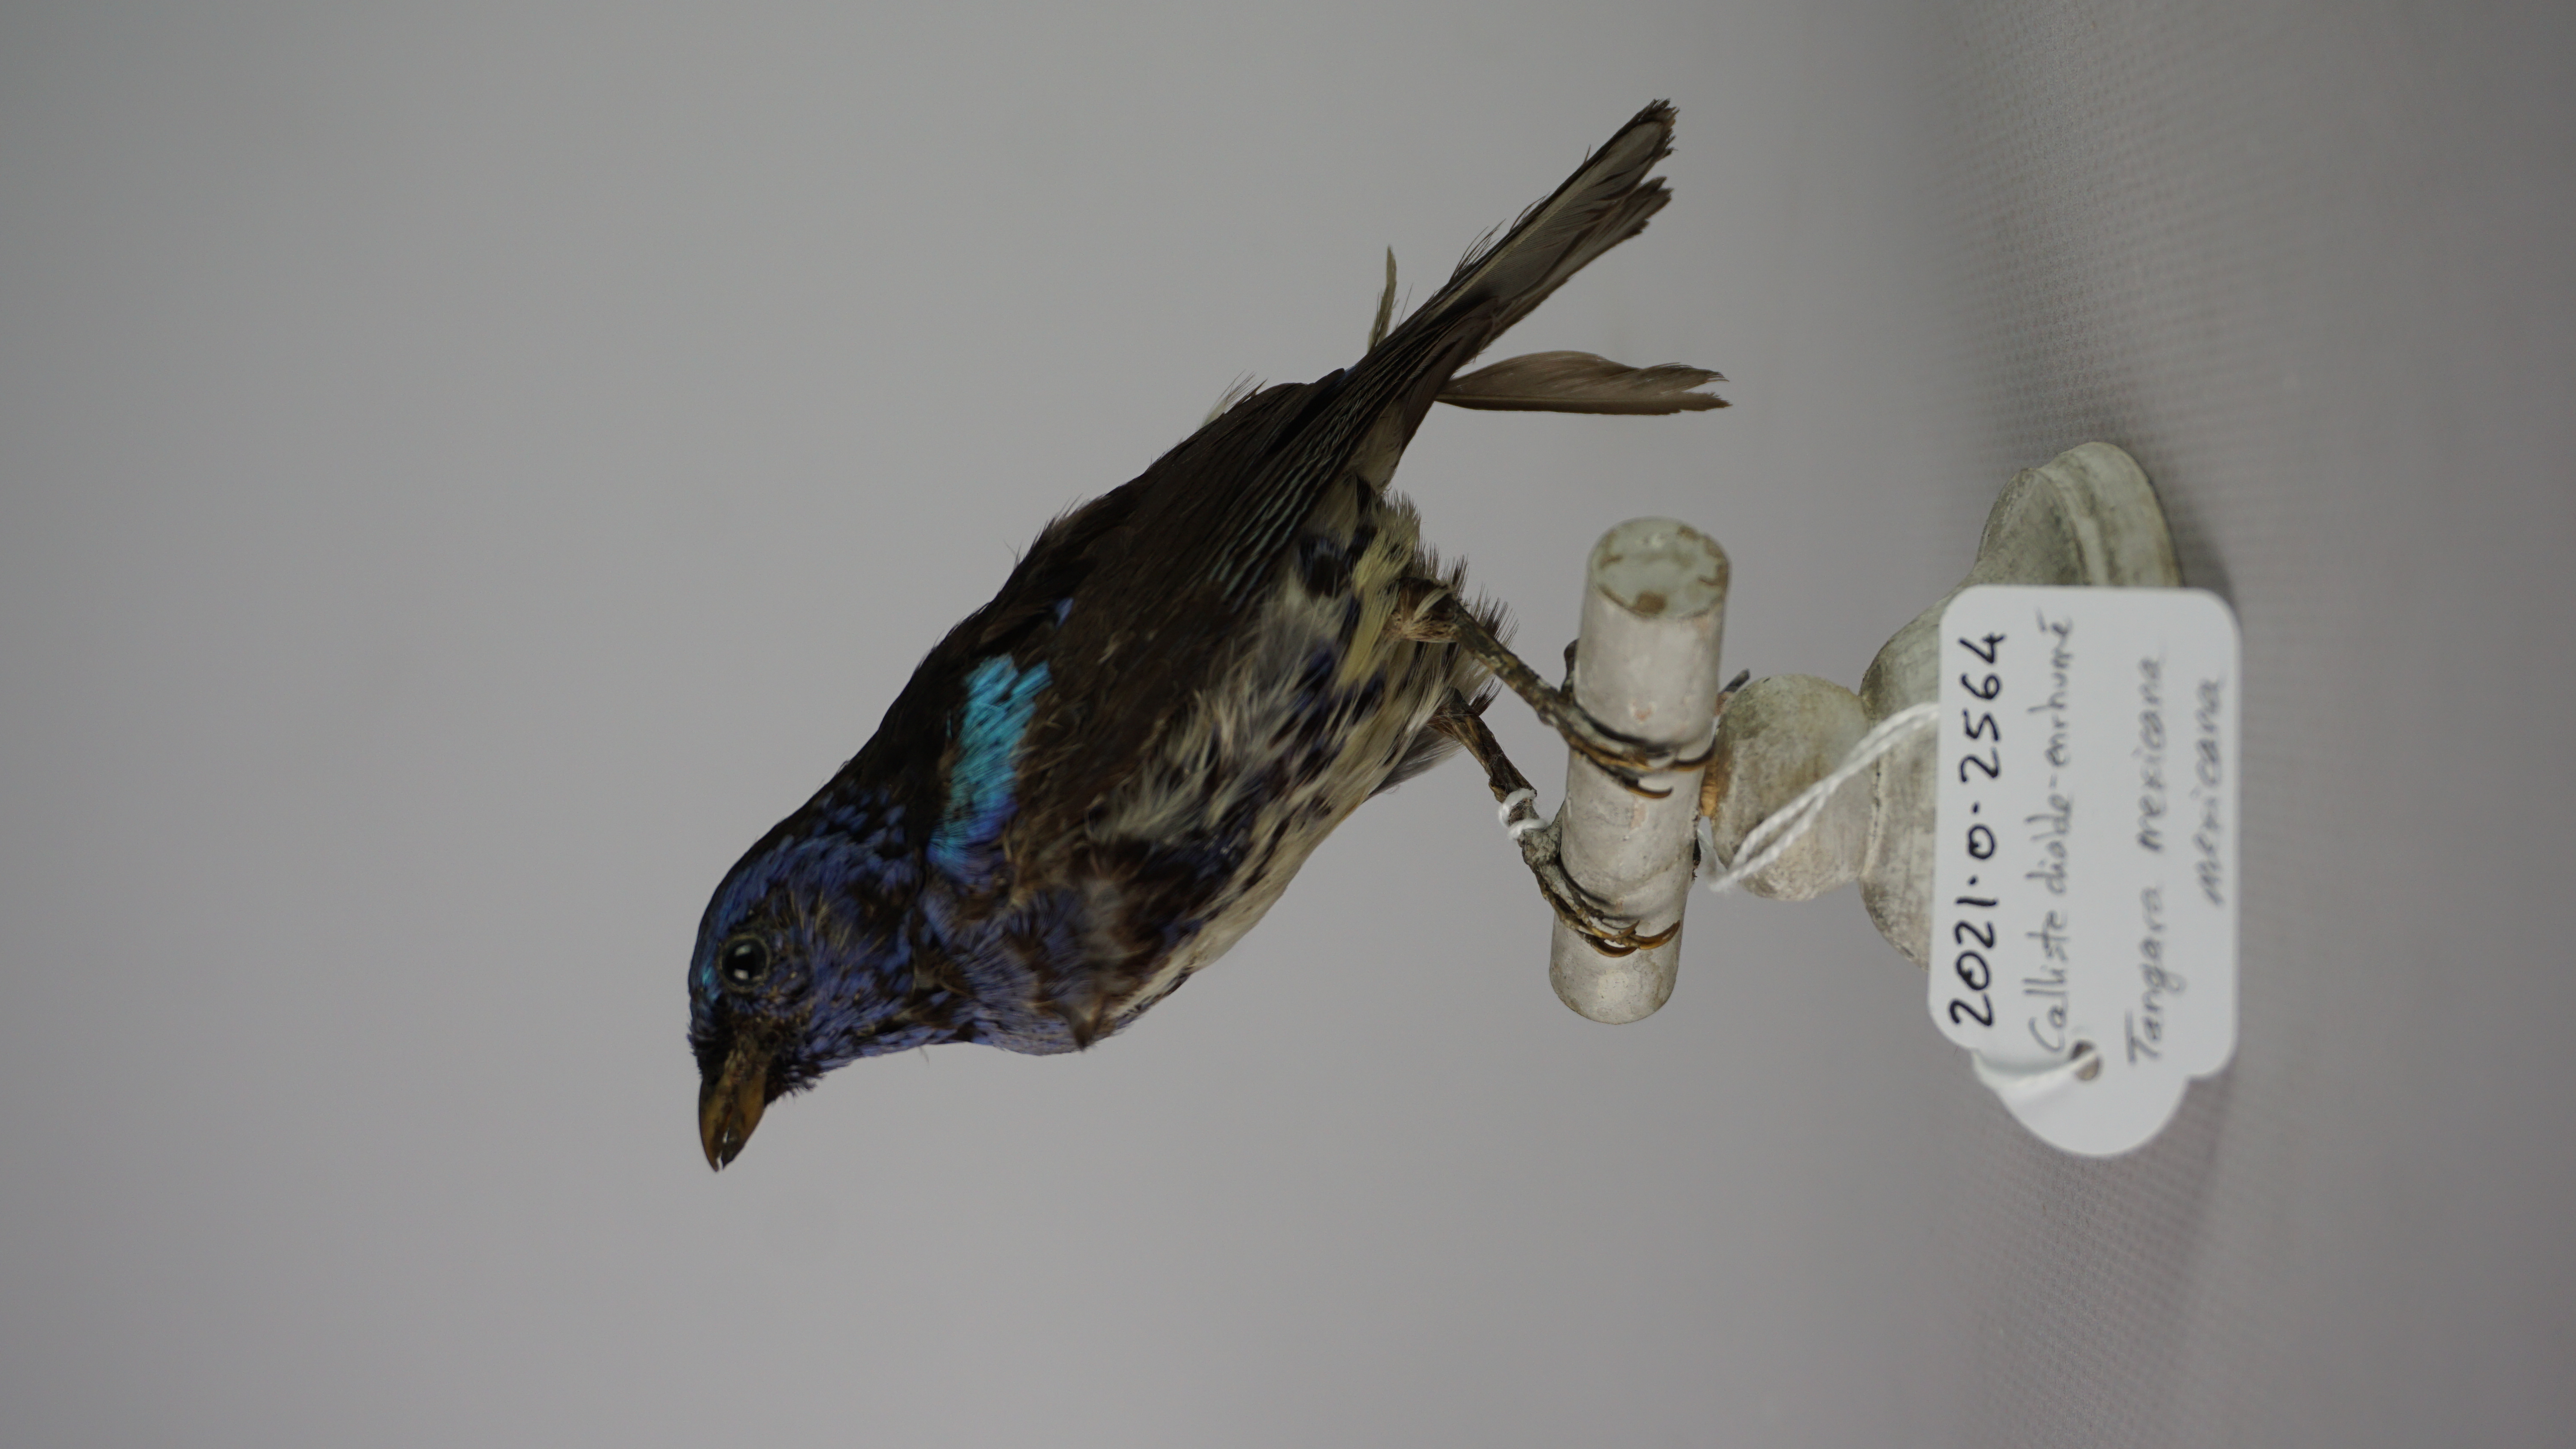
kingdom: Animalia
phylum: Chordata
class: Aves
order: Passeriformes
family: Thraupidae
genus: Tangara
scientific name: Tangara mexicana
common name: Turquoise tanager
